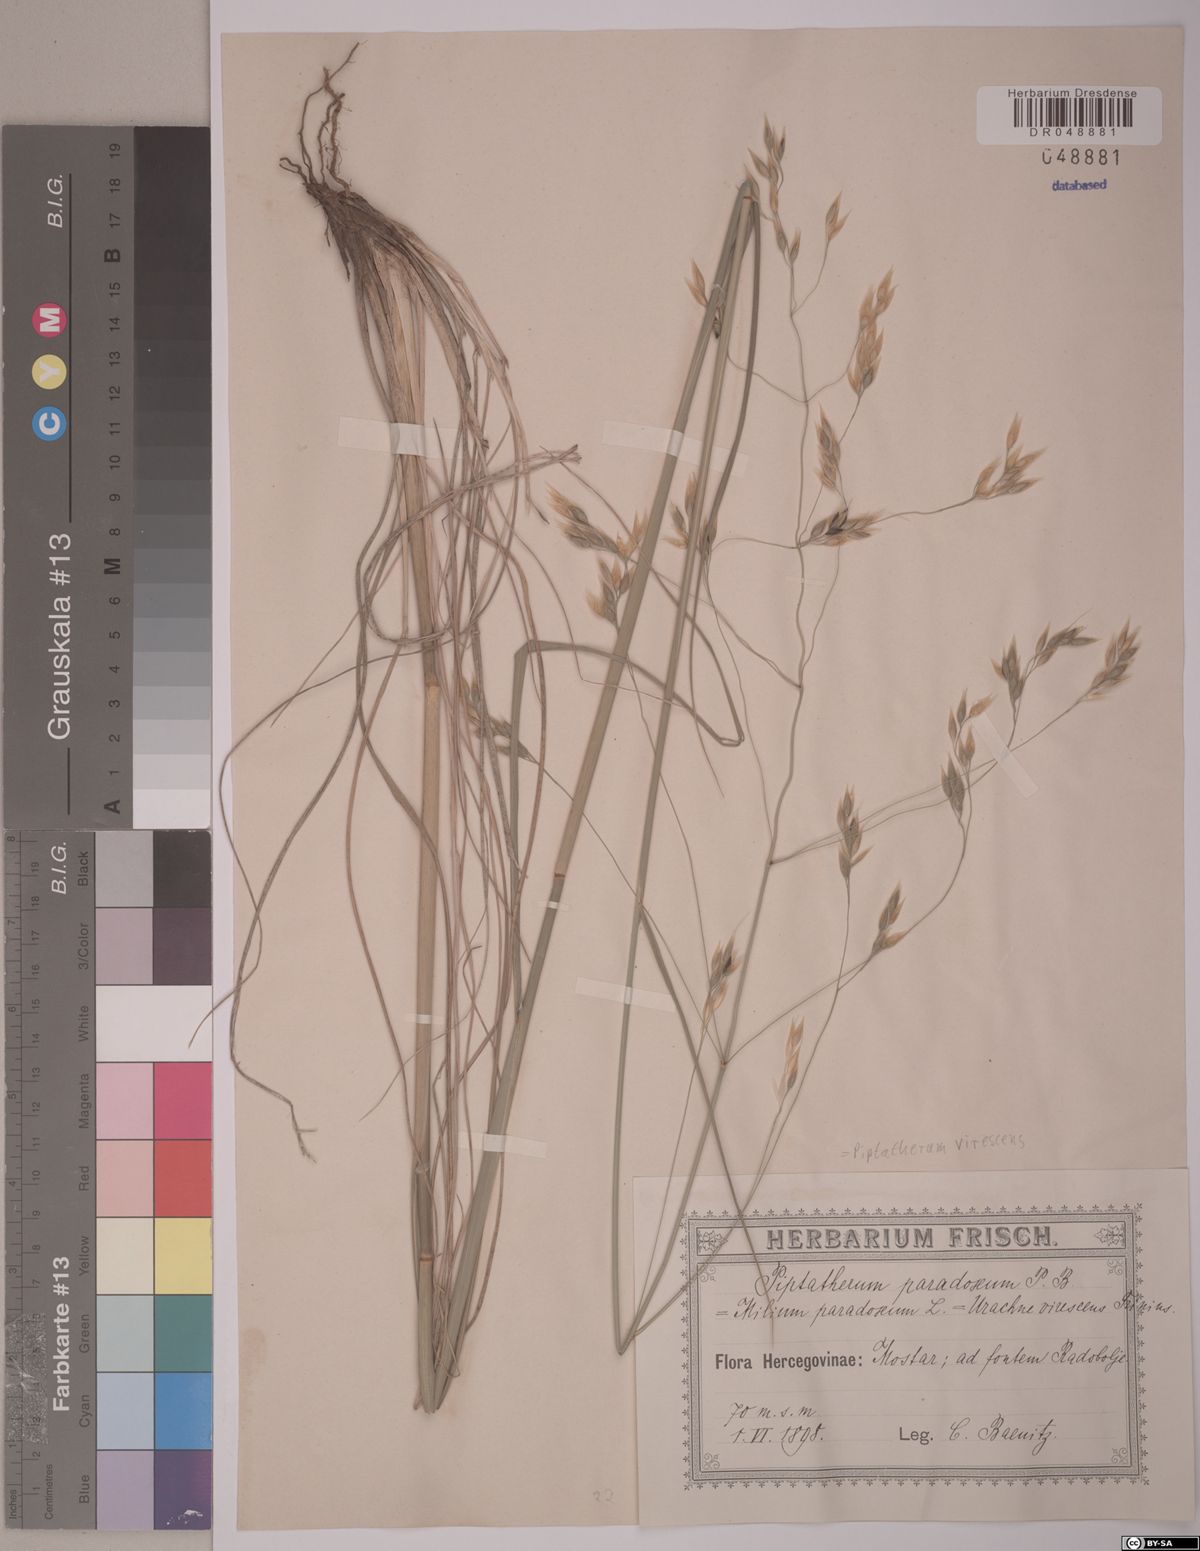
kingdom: Plantae
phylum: Tracheophyta
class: Liliopsida
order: Poales
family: Poaceae
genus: Achnatherum
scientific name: Achnatherum paradoxum
